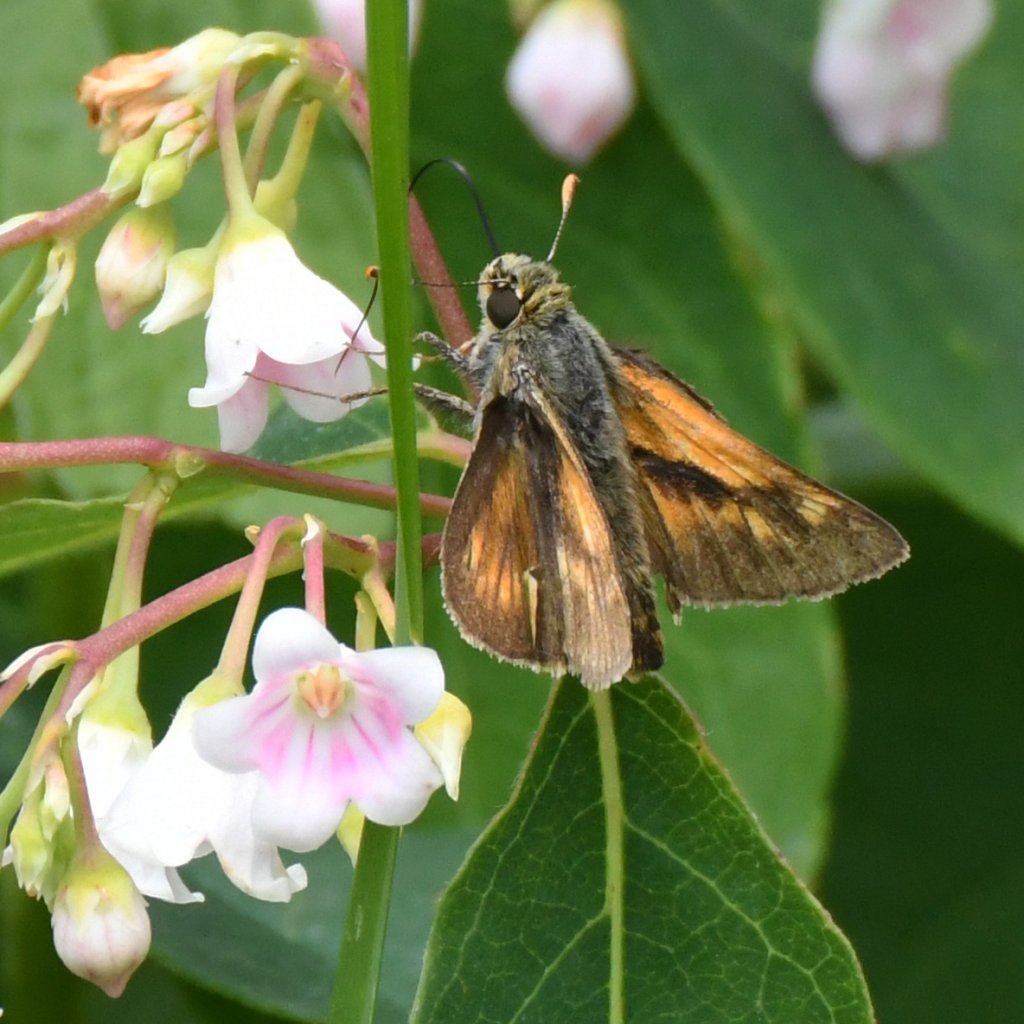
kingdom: Animalia
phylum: Arthropoda
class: Insecta
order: Lepidoptera
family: Hesperiidae
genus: Polites
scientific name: Polites
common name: Long Dash Skipper
